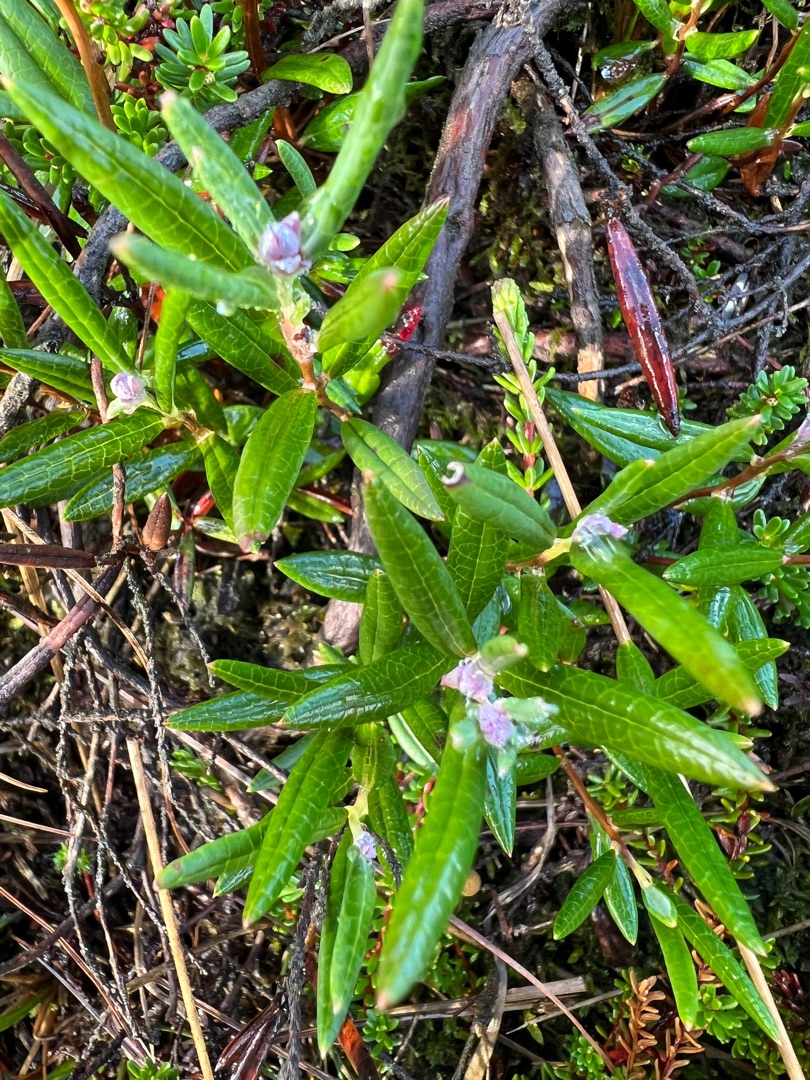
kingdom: Plantae
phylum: Tracheophyta
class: Magnoliopsida
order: Ericales
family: Ericaceae
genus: Andromeda
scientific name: Andromeda polifolia
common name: Rosmarinlyng
